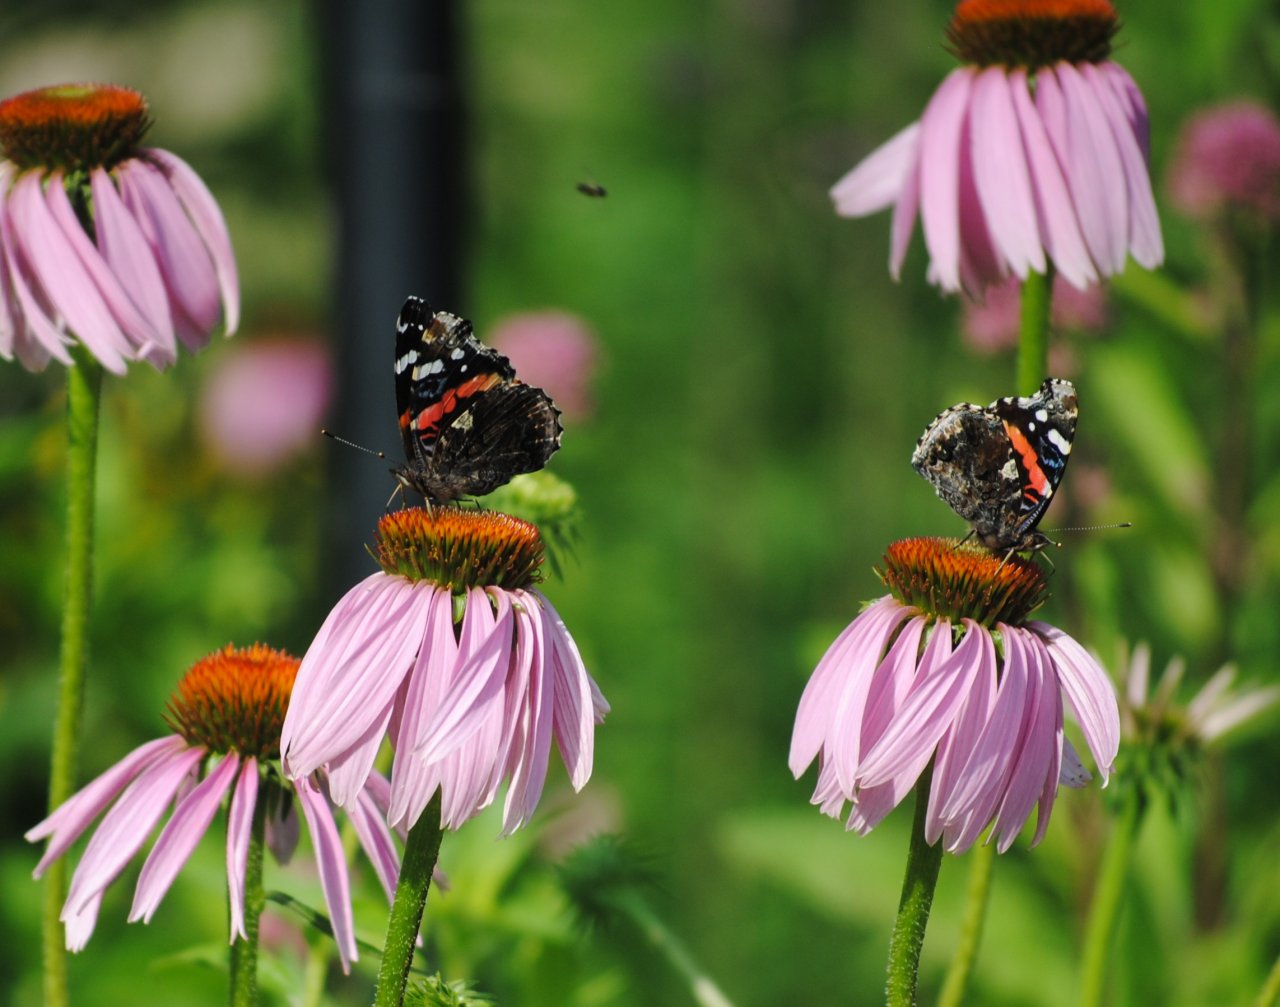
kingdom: Animalia
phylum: Arthropoda
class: Insecta
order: Lepidoptera
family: Nymphalidae
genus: Vanessa
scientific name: Vanessa atalanta
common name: Red Admiral
